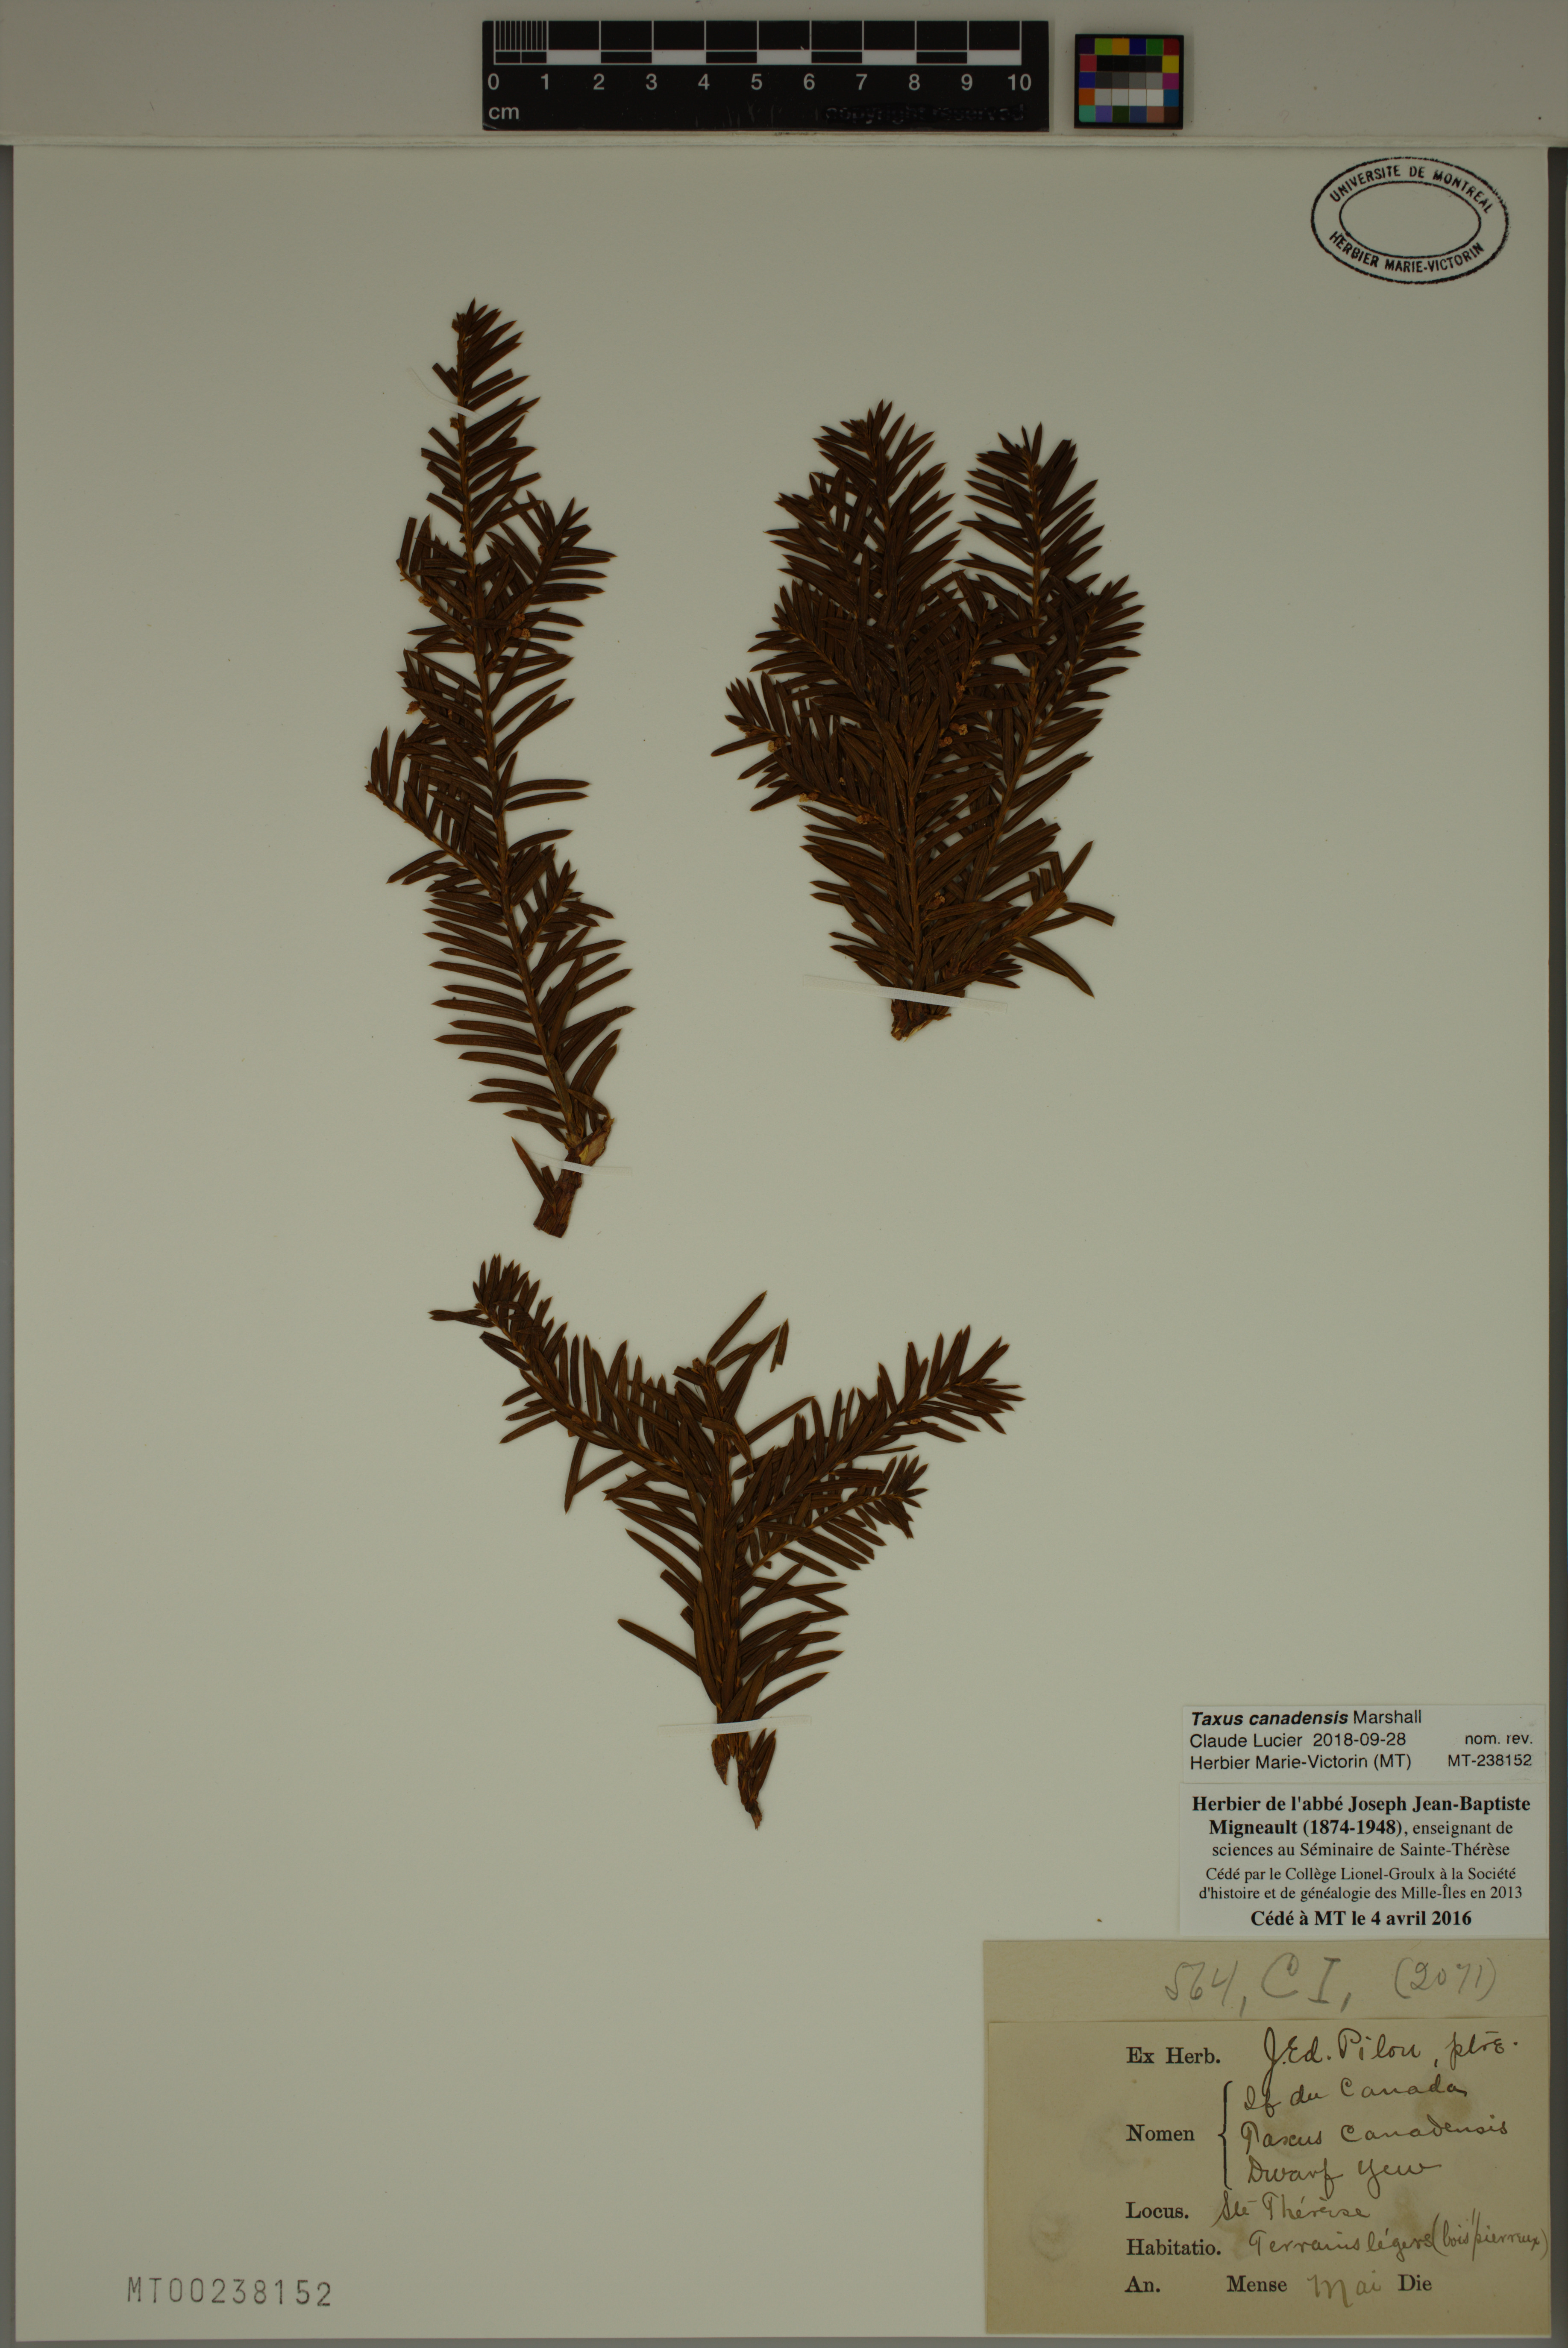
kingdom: Plantae
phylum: Tracheophyta
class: Pinopsida
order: Pinales
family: Taxaceae
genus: Taxus
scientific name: Taxus canadensis
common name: American yew
